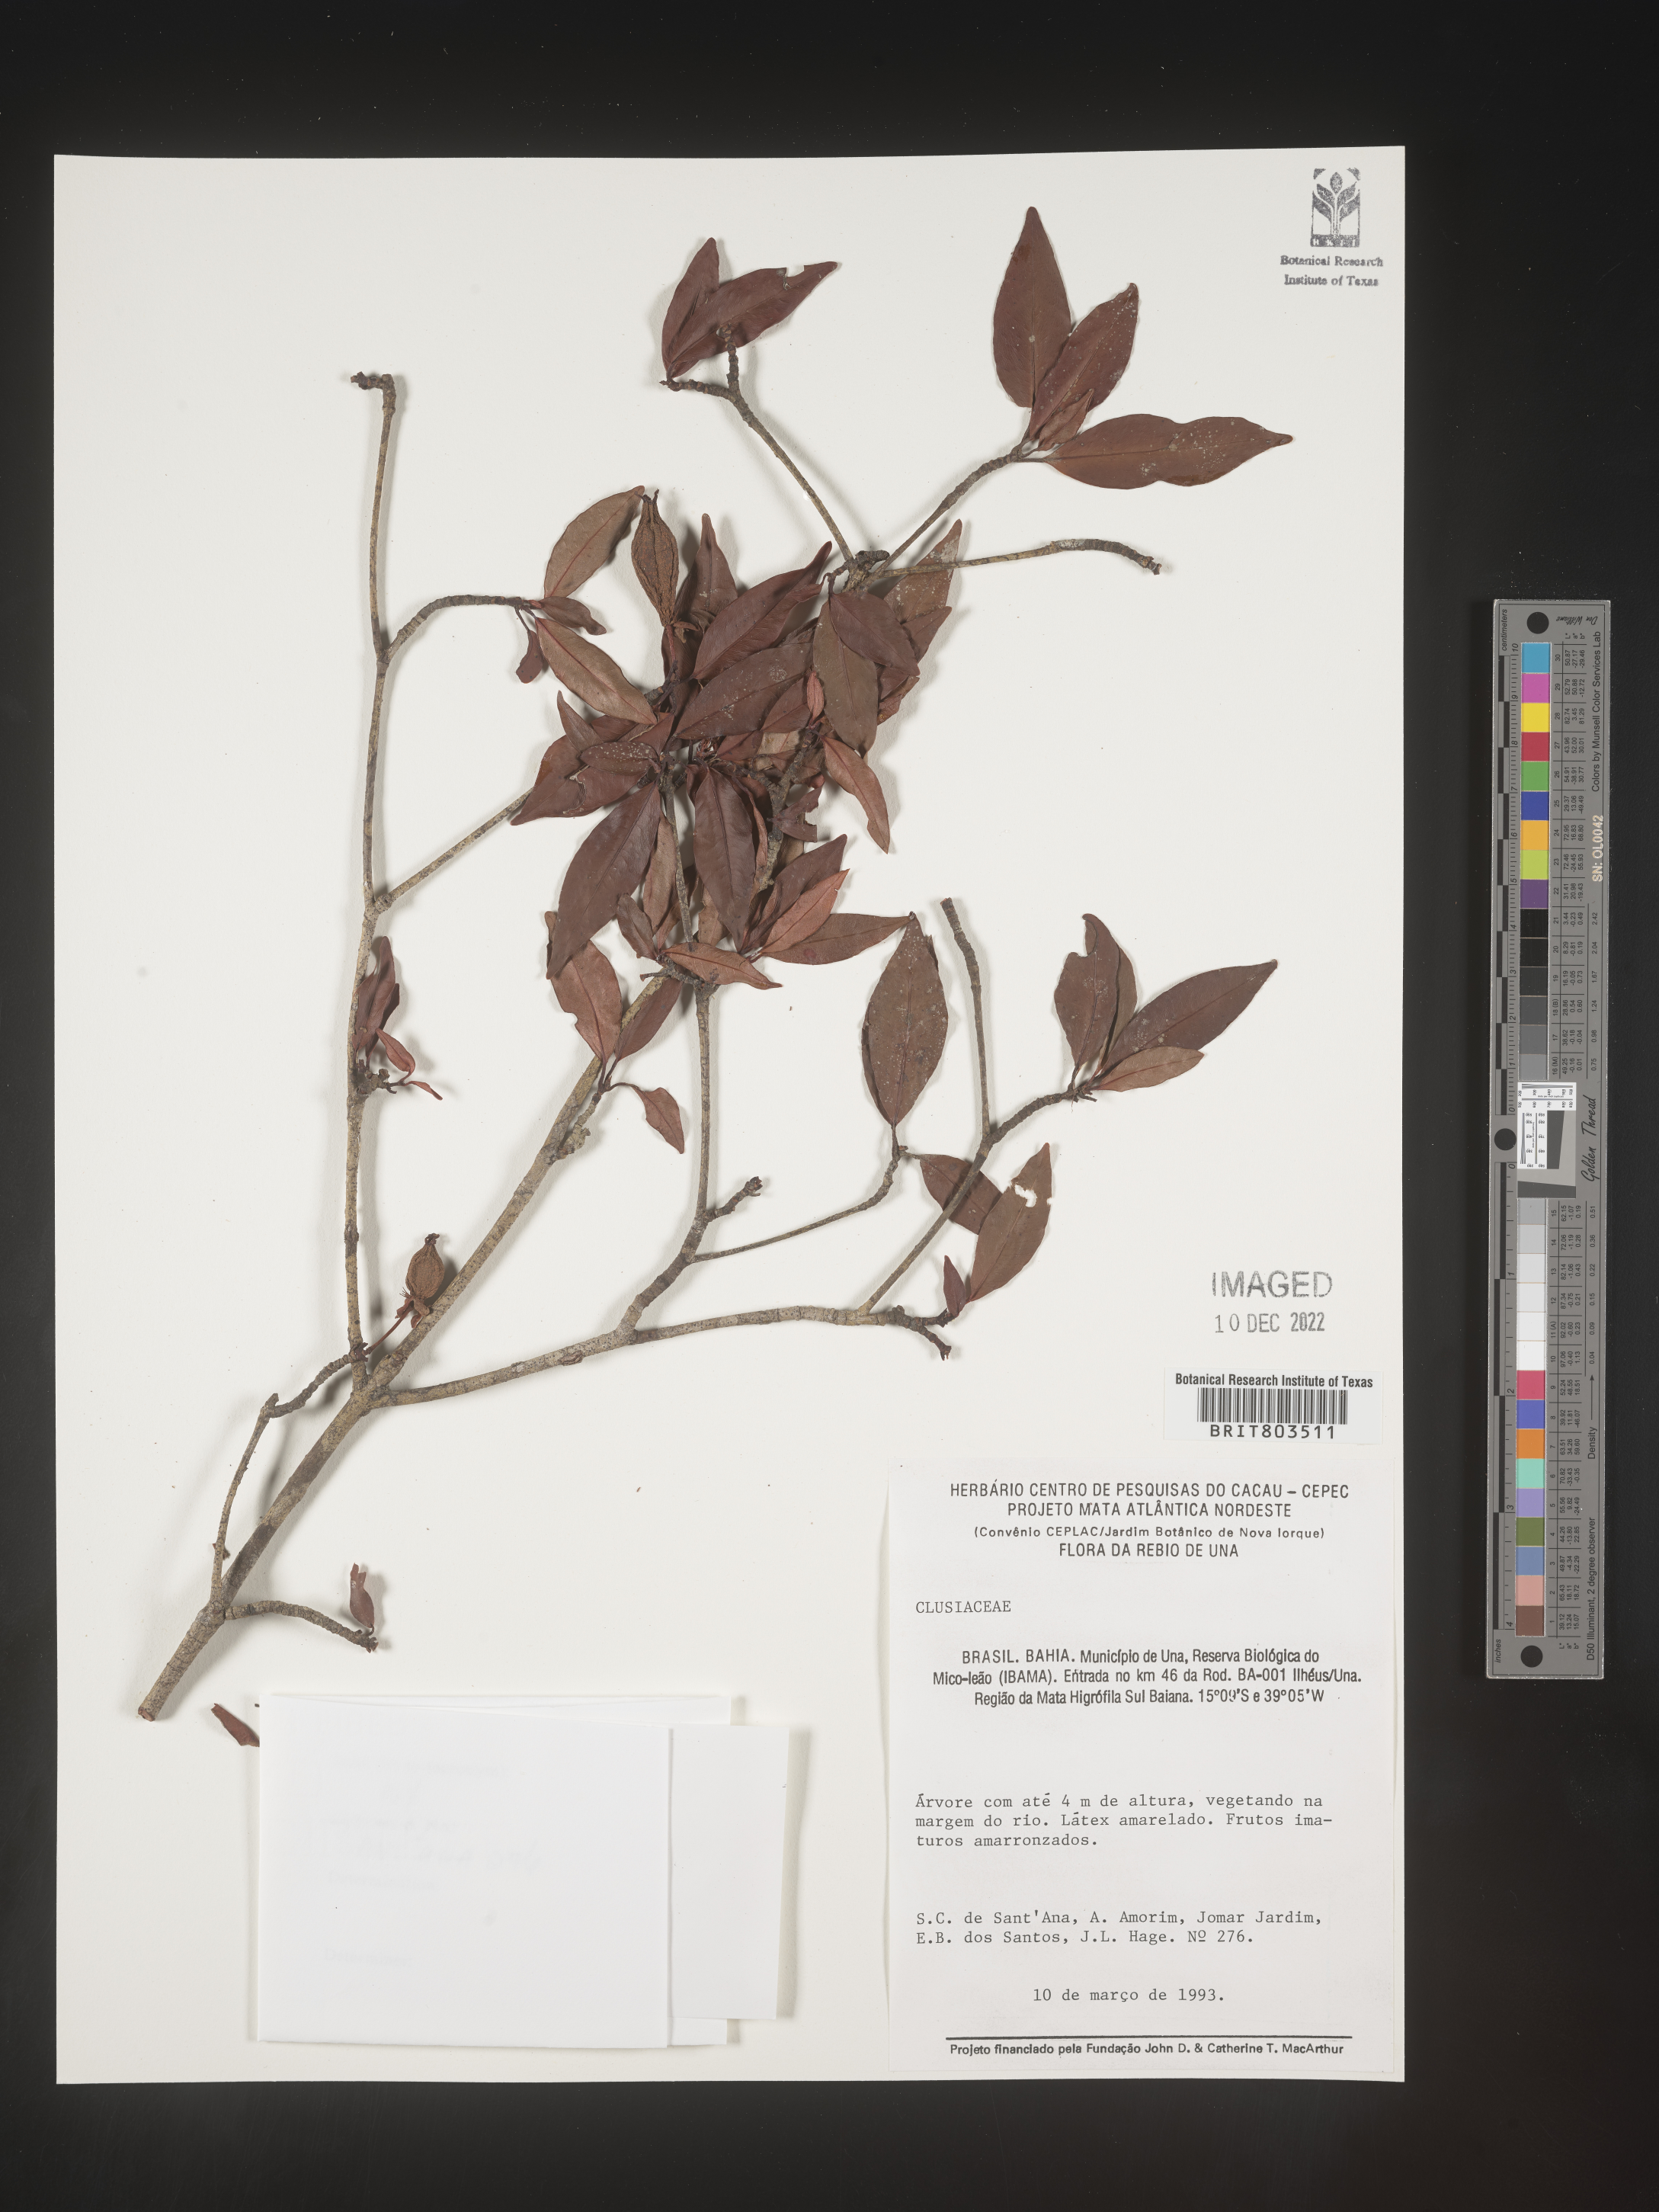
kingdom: Plantae
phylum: Tracheophyta
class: Magnoliopsida
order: Malpighiales
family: Clusiaceae
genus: Tovomita
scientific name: Tovomita
